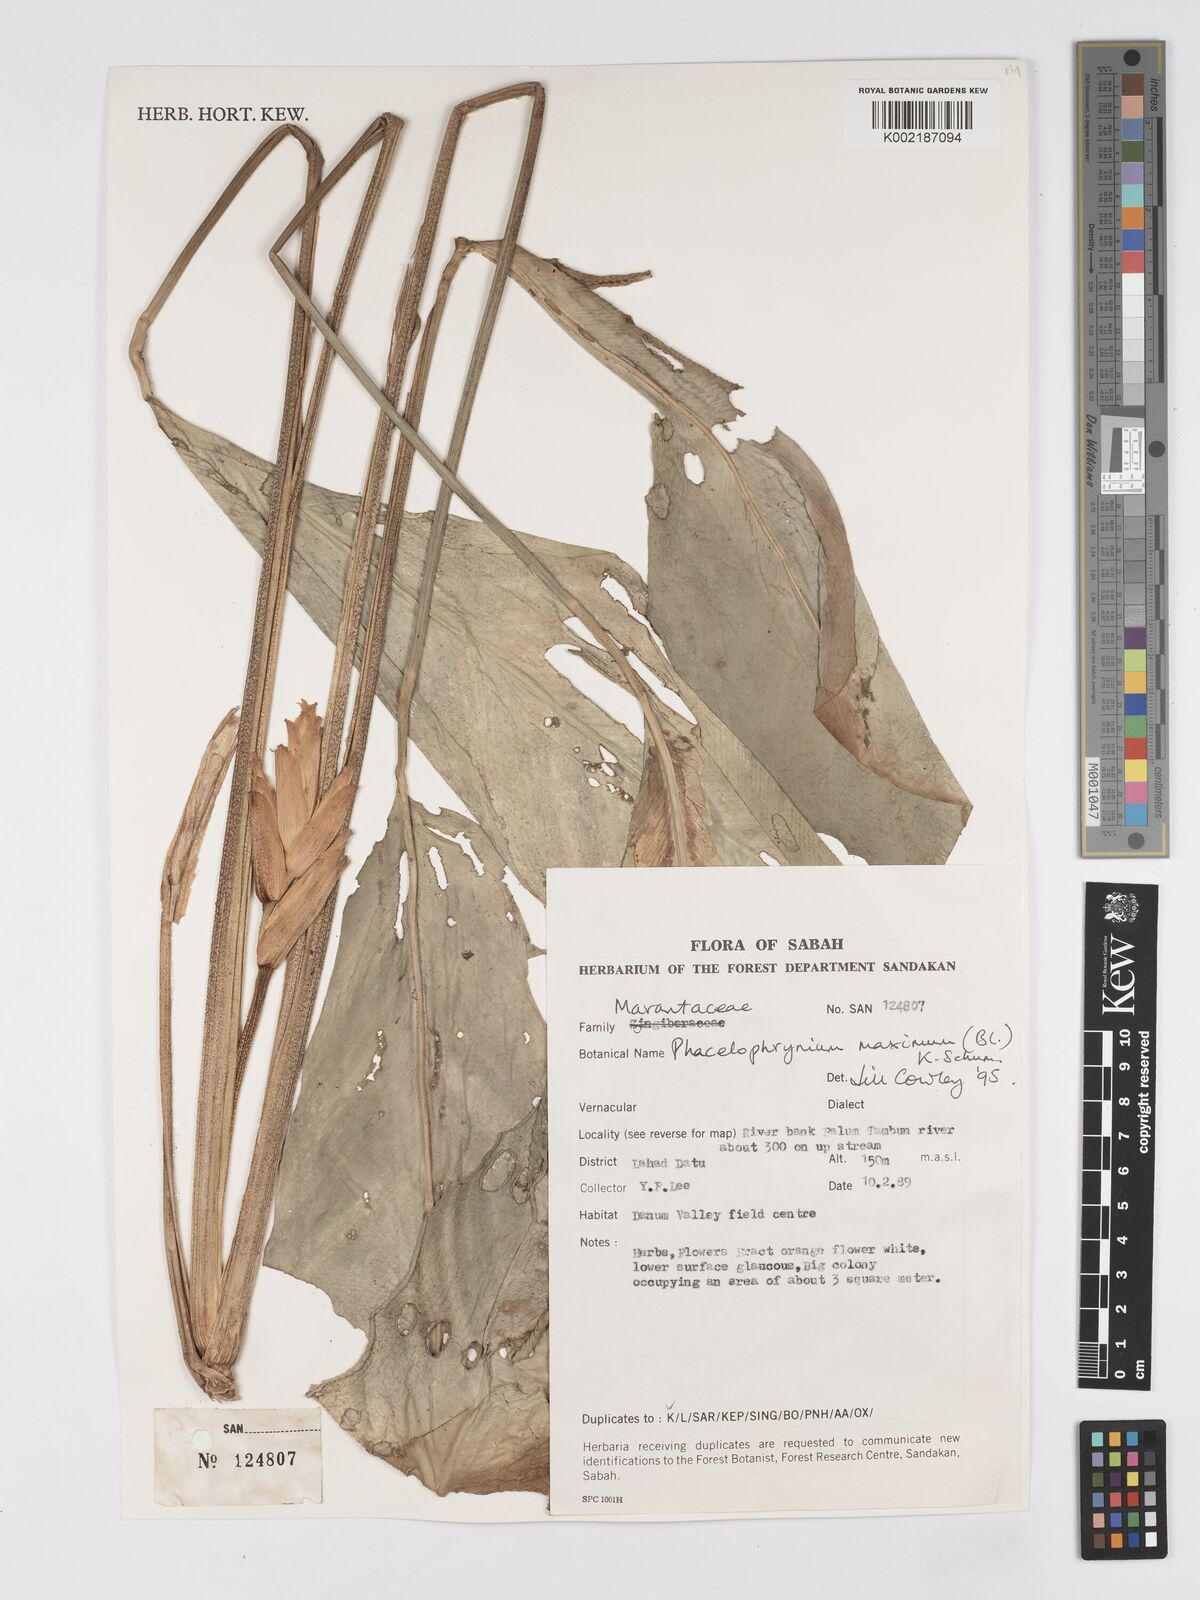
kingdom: Plantae
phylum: Tracheophyta
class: Liliopsida
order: Zingiberales
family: Marantaceae
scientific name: Marantaceae
